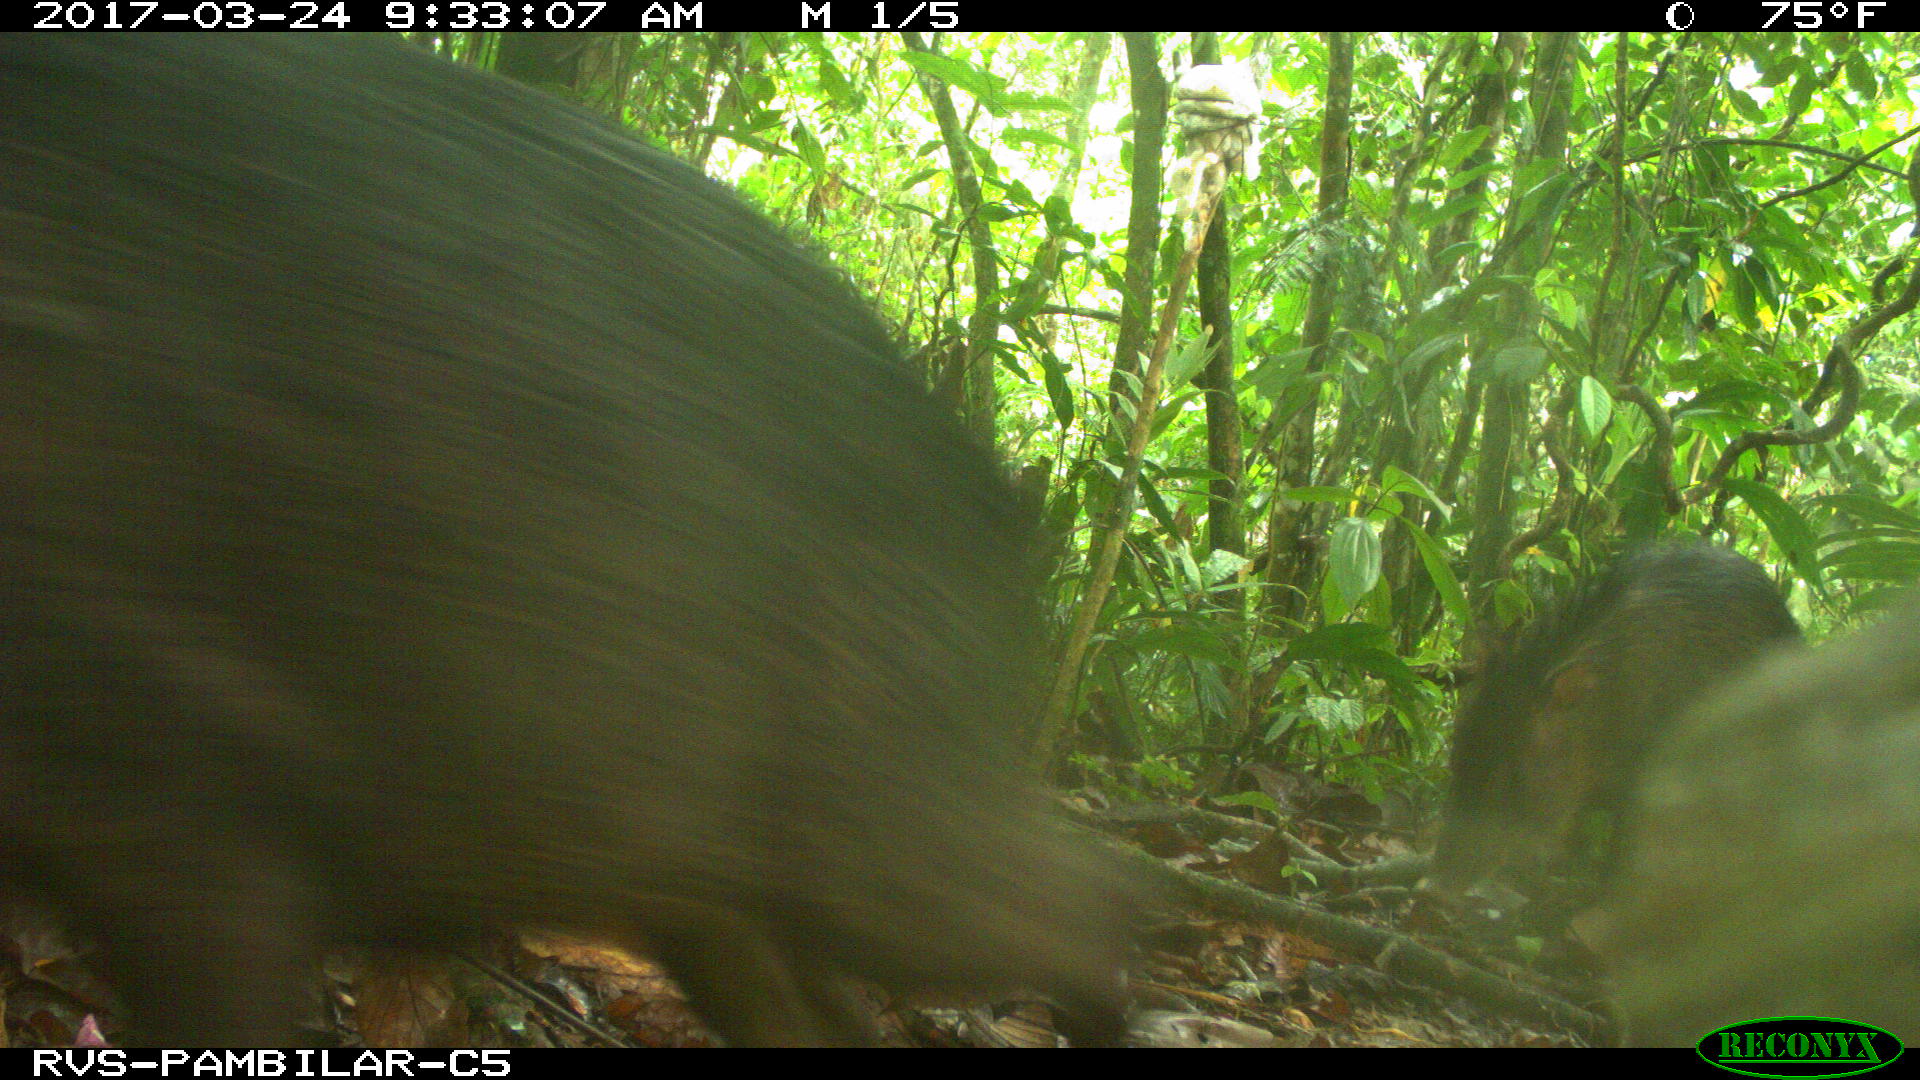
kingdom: Animalia
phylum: Chordata
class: Mammalia
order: Artiodactyla
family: Tayassuidae
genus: Tayassu
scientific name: Tayassu pecari
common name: White-lipped peccary
